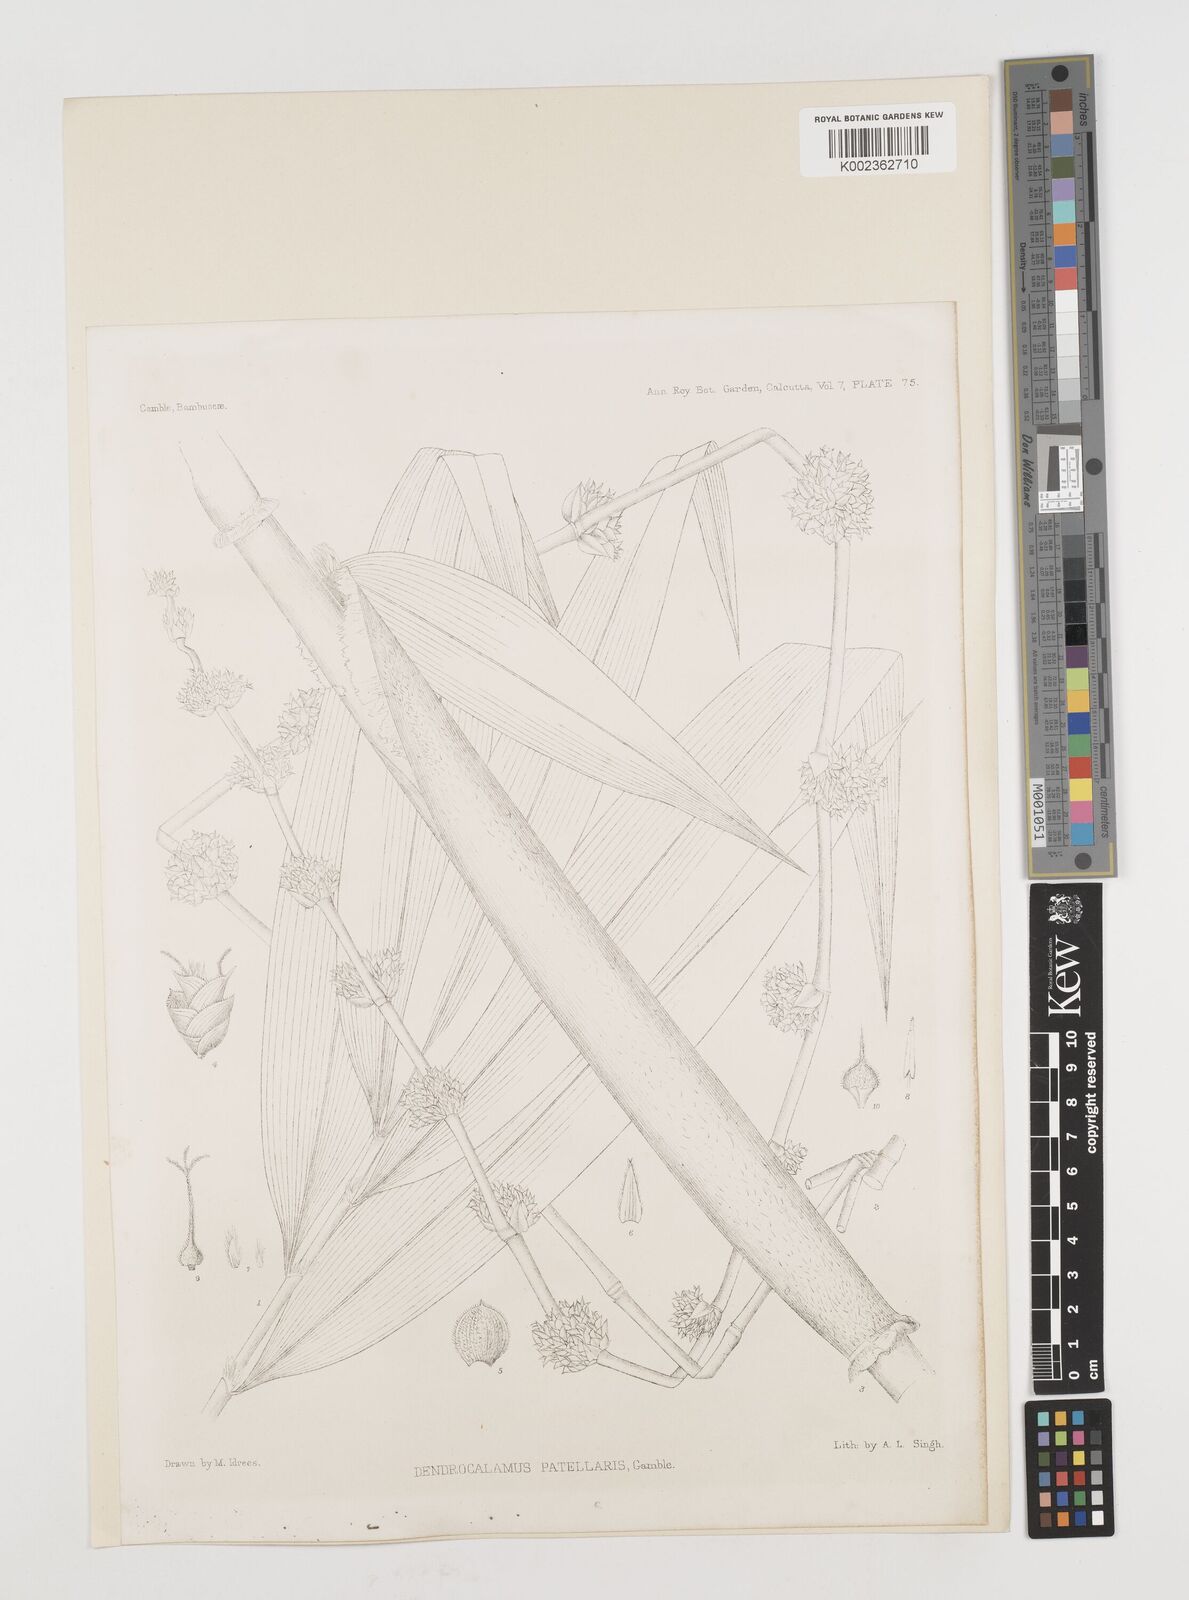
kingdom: Plantae
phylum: Tracheophyta
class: Liliopsida
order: Poales
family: Poaceae
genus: Ampelocalamus
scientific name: Ampelocalamus patellaris
